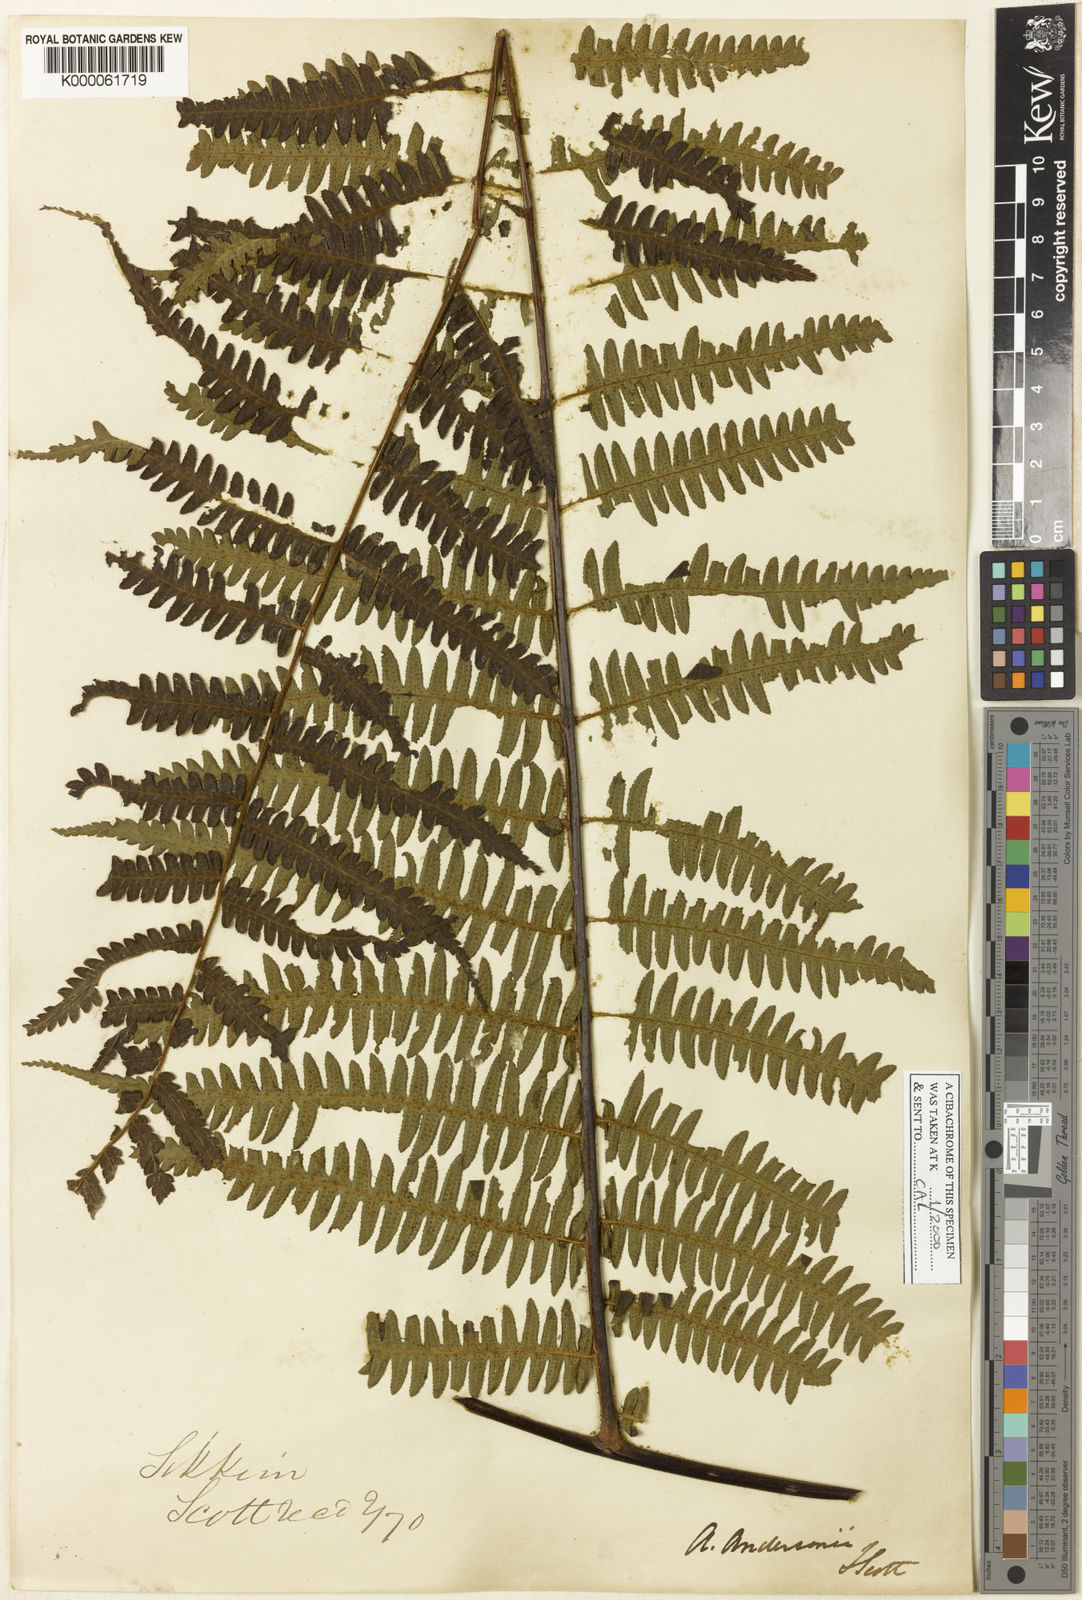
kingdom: Plantae
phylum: Tracheophyta
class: Polypodiopsida
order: Cyatheales
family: Cyatheaceae
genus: Gymnosphaera
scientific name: Gymnosphaera andersonii
